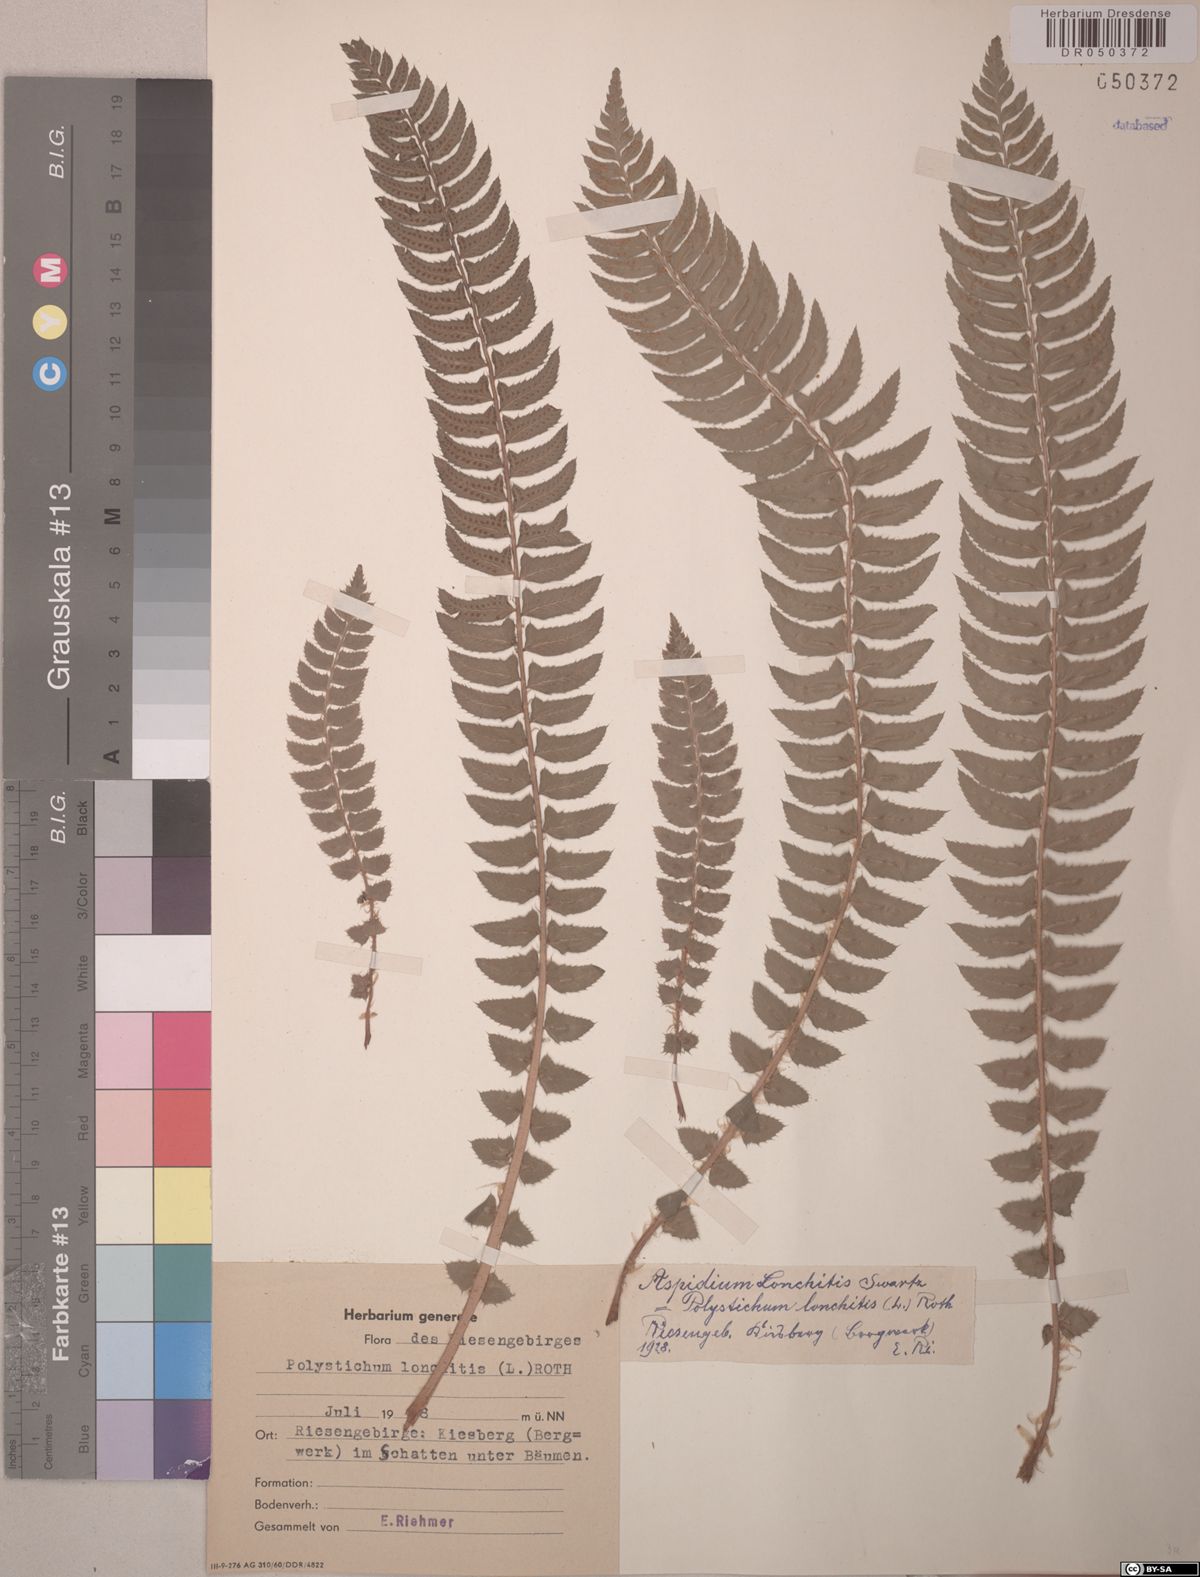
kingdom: Plantae
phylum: Tracheophyta
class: Polypodiopsida
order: Polypodiales
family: Dryopteridaceae
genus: Polystichum
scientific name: Polystichum lonchitis
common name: Holly fern
